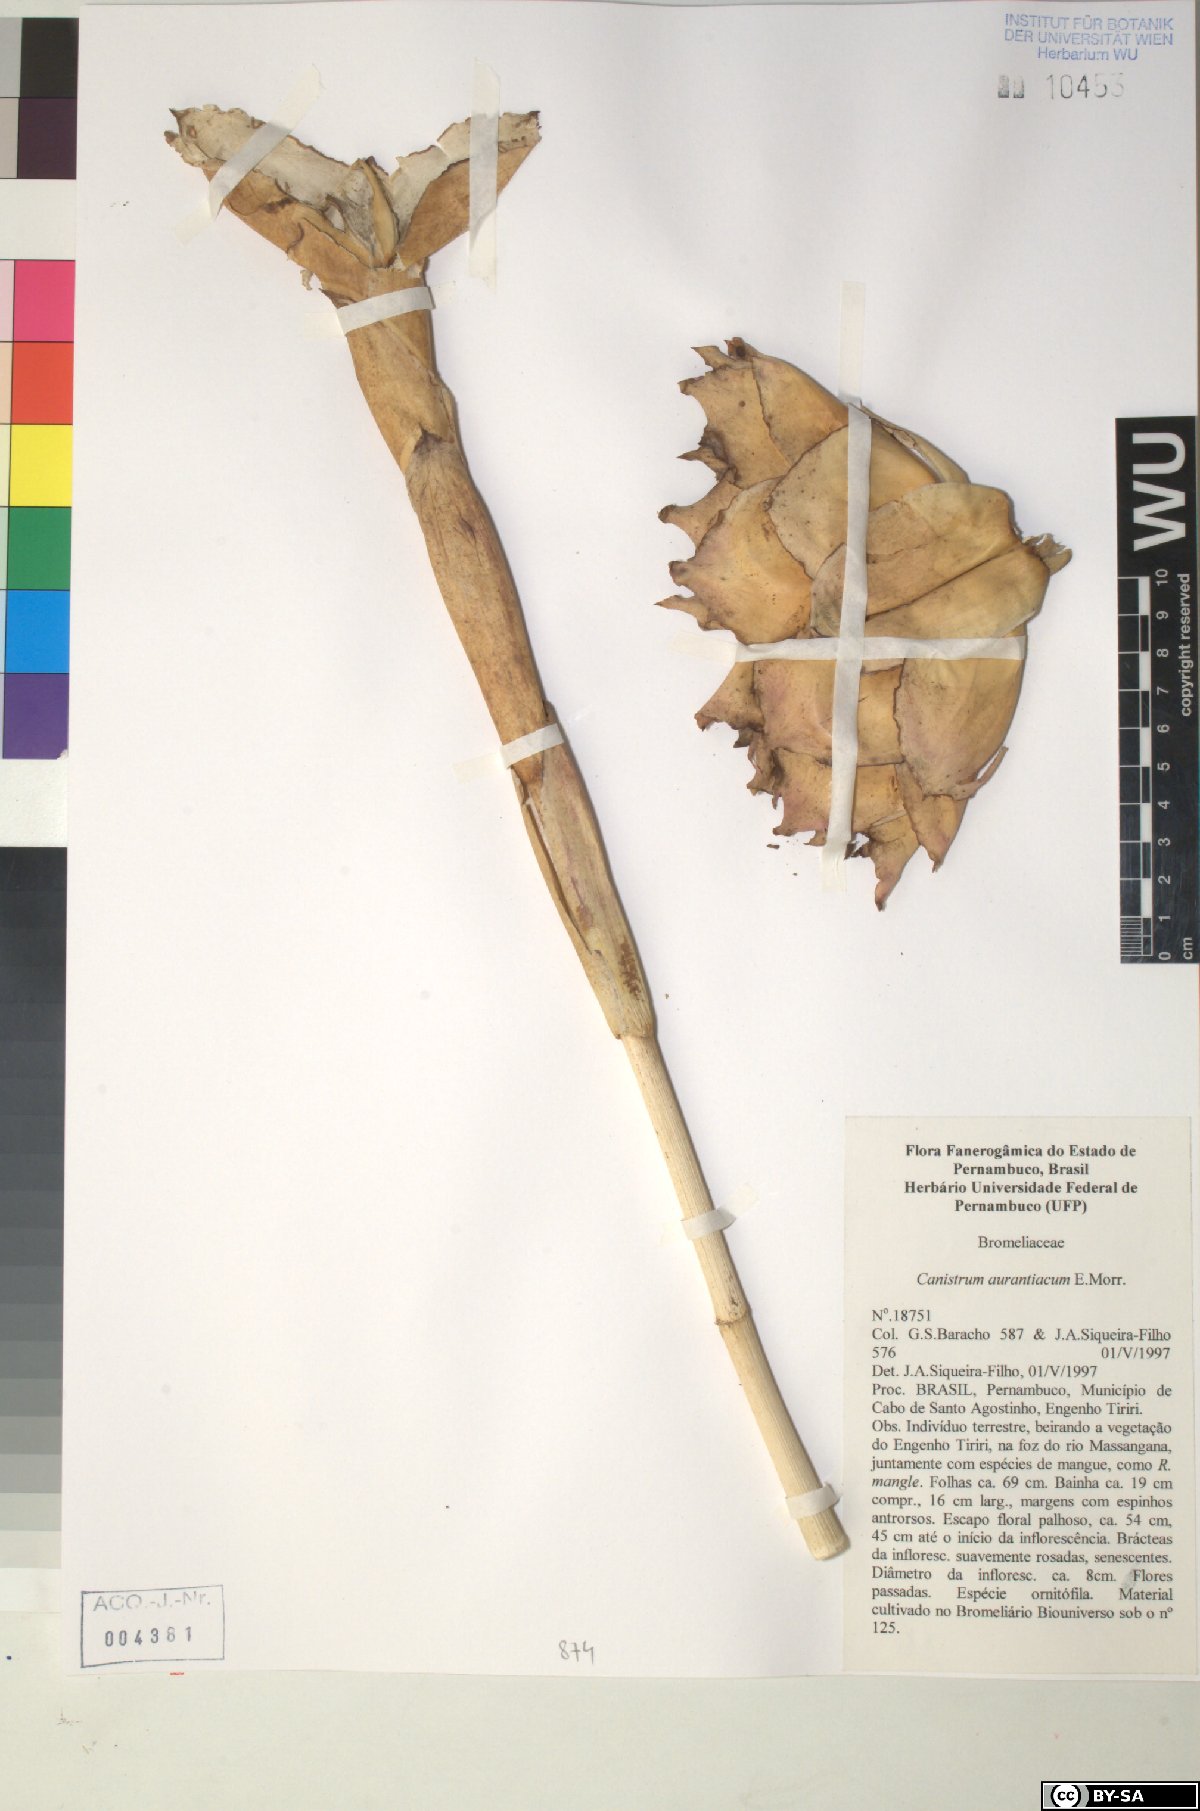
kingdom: Plantae
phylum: Tracheophyta
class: Liliopsida
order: Poales
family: Bromeliaceae
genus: Canistrum
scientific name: Canistrum aurantiacum
